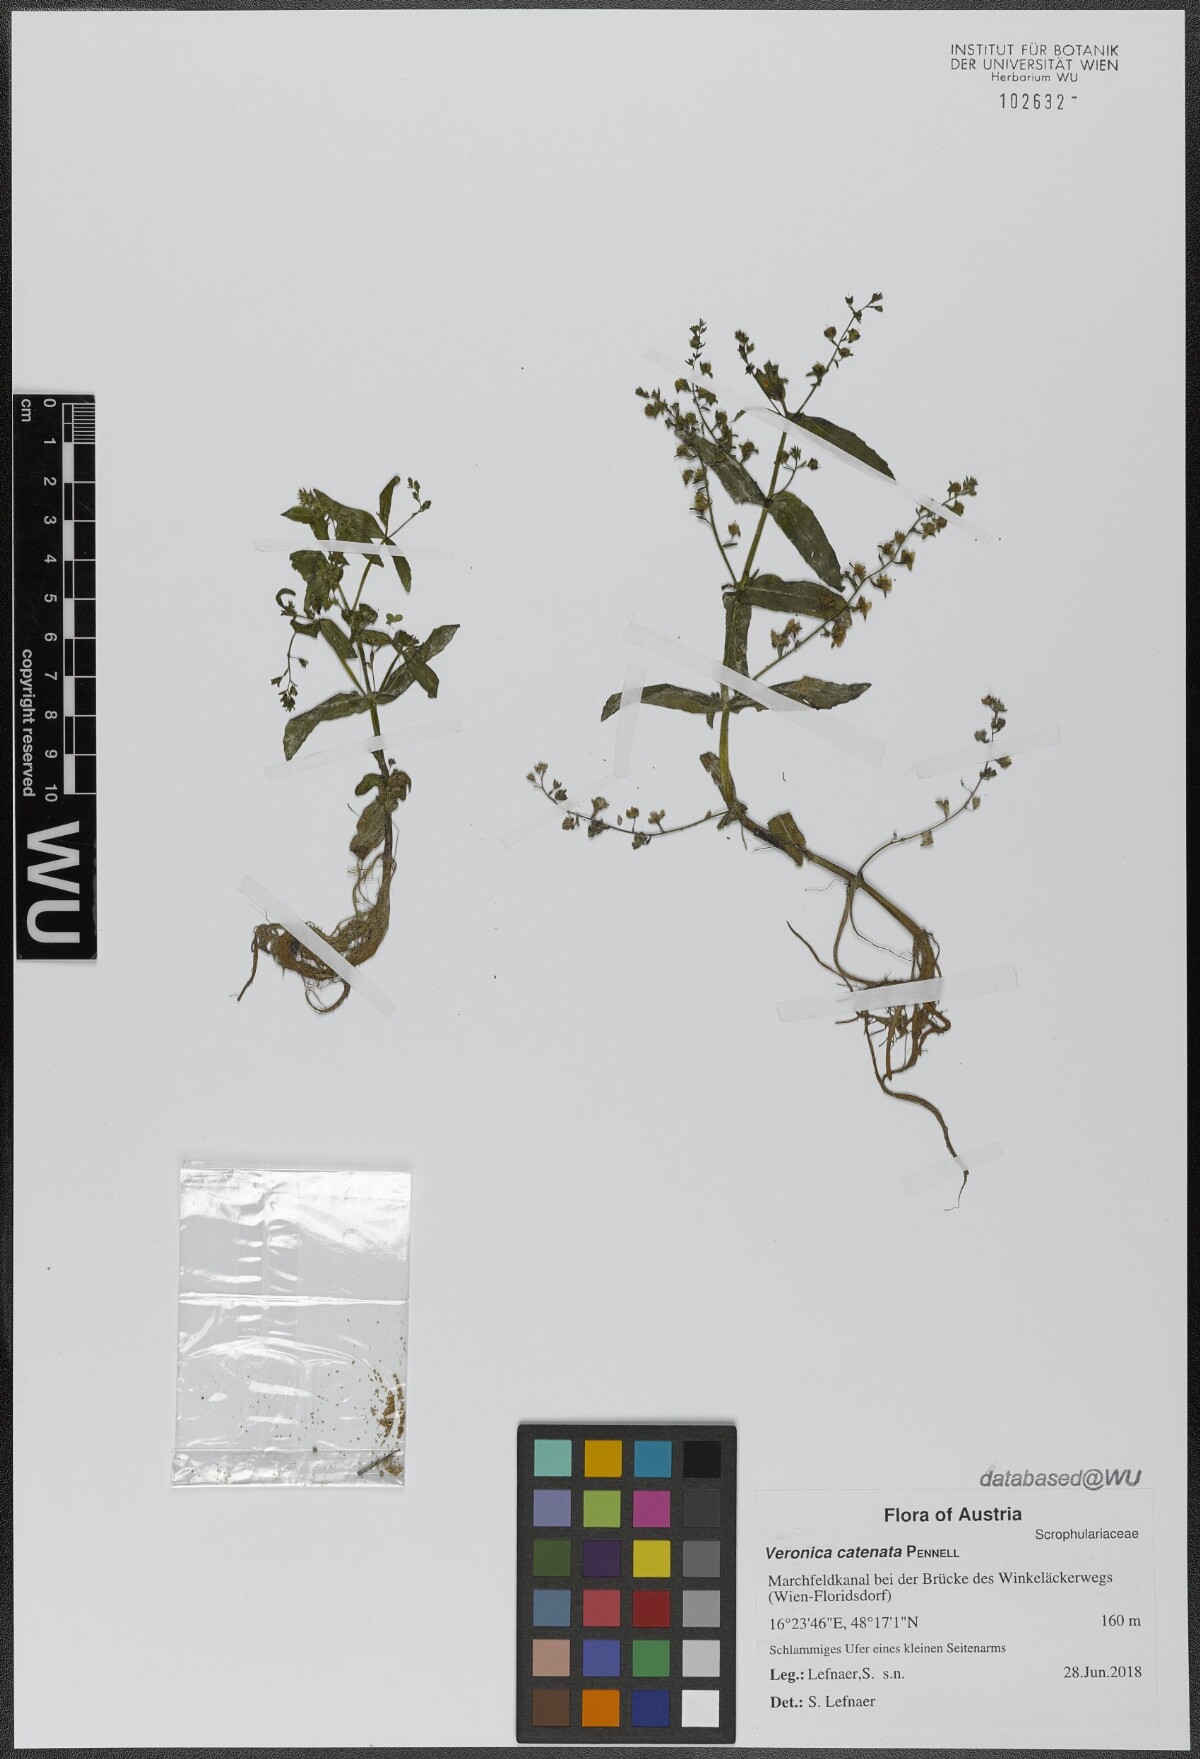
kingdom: Plantae
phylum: Tracheophyta
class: Magnoliopsida
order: Lamiales
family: Plantaginaceae
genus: Veronica
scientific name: Veronica catenata
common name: Pink water-speedwell
